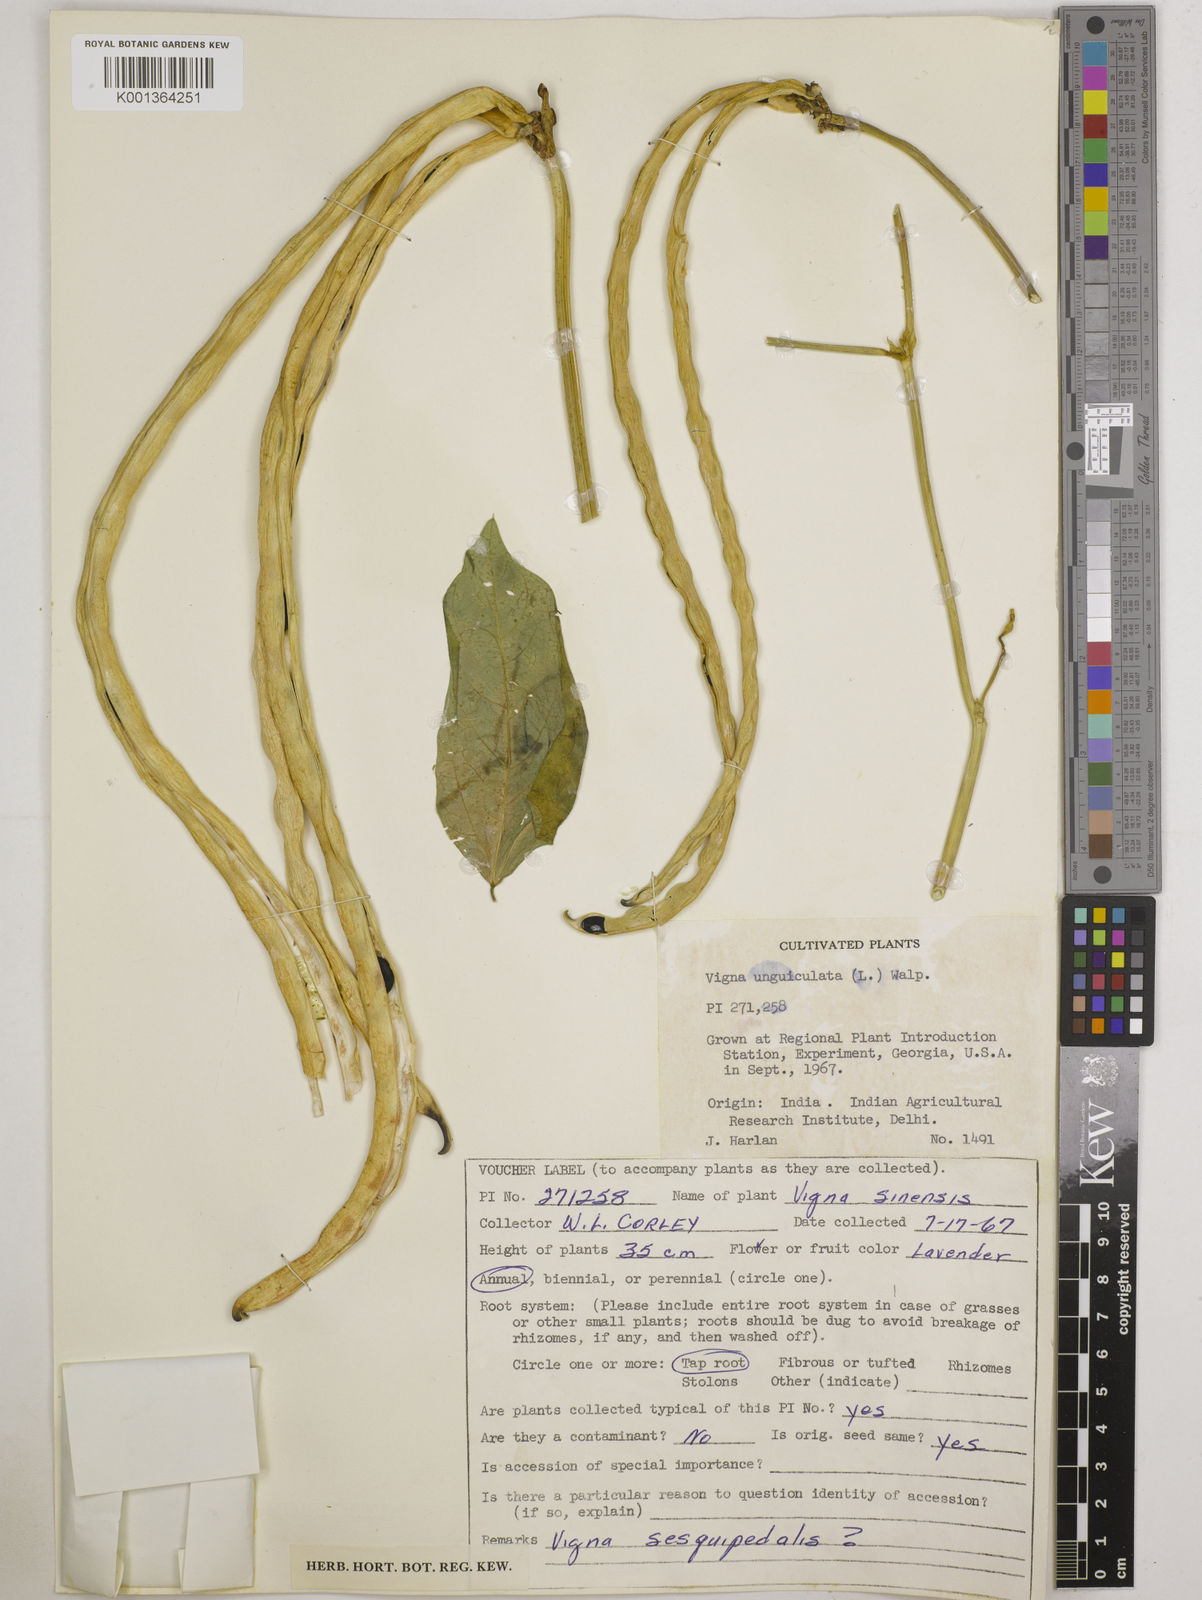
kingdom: Plantae
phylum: Tracheophyta
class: Magnoliopsida
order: Fabales
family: Fabaceae
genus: Vigna
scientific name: Vigna unguiculata
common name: Cowpea
